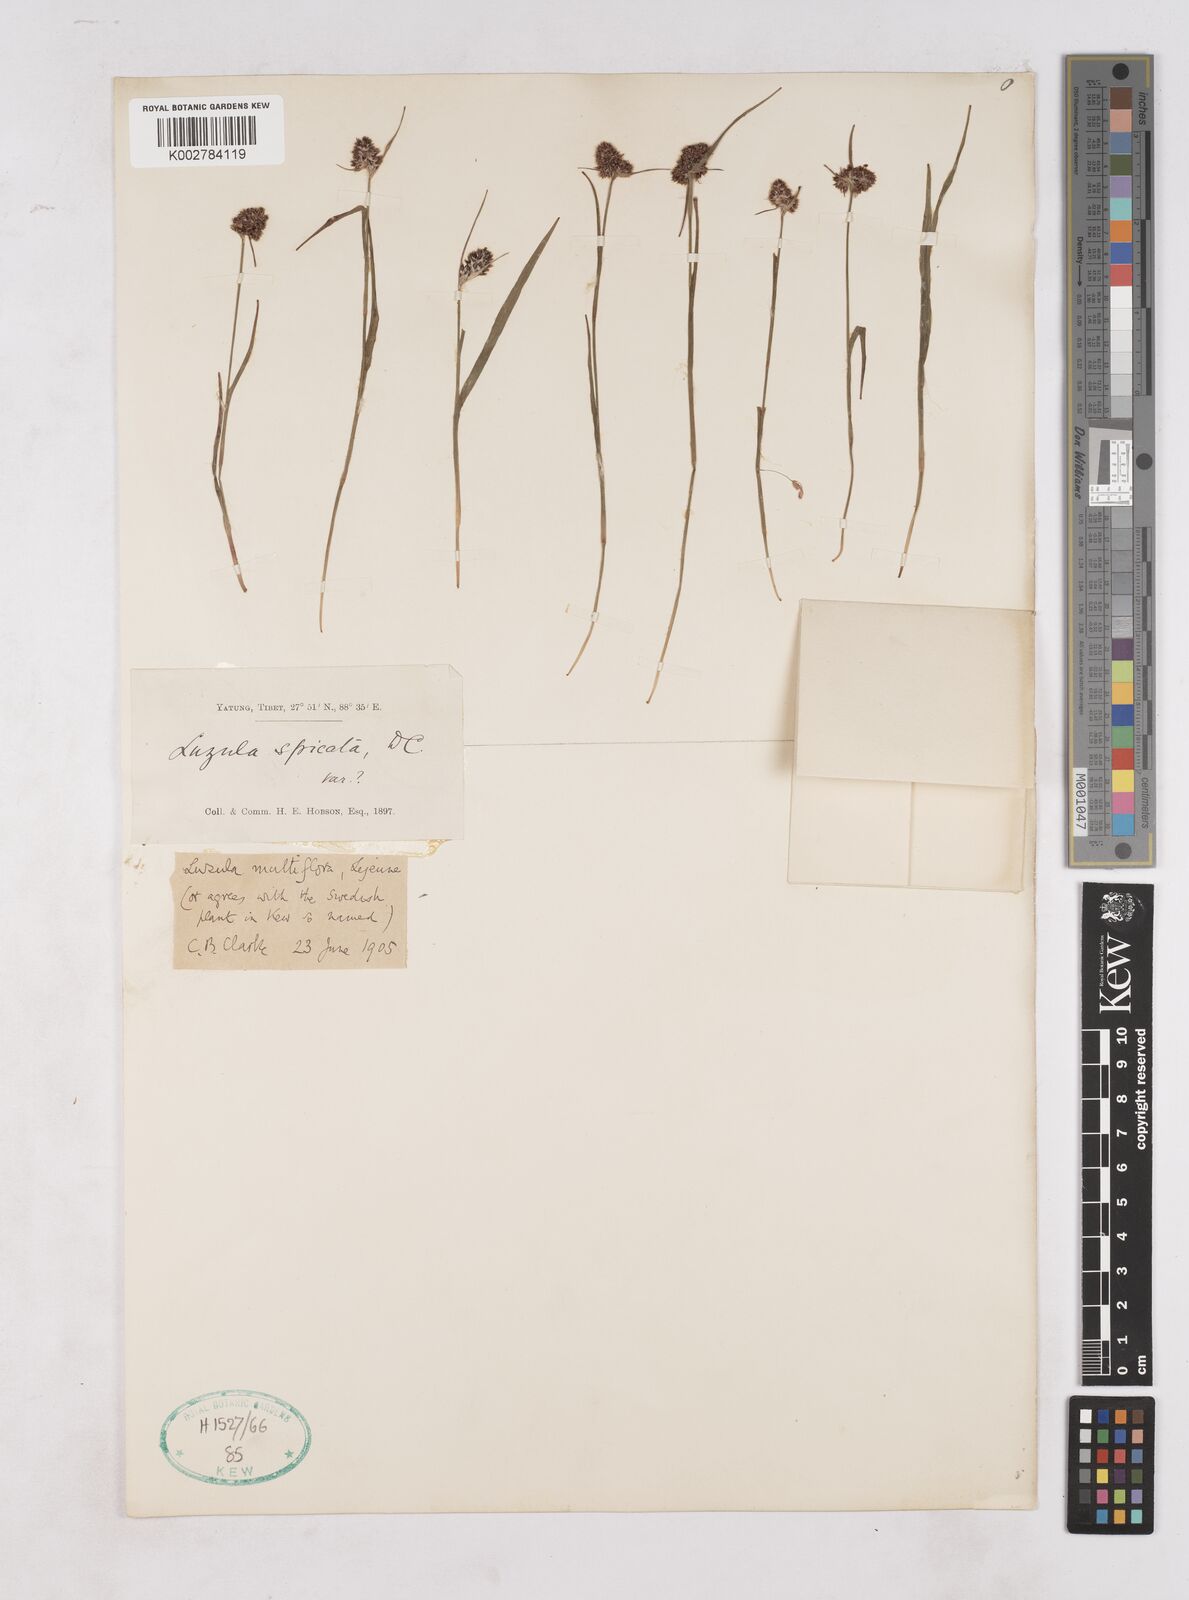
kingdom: Plantae
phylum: Tracheophyta
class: Liliopsida
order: Poales
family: Juncaceae
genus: Luzula
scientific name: Luzula multiflora
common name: Heath wood-rush
